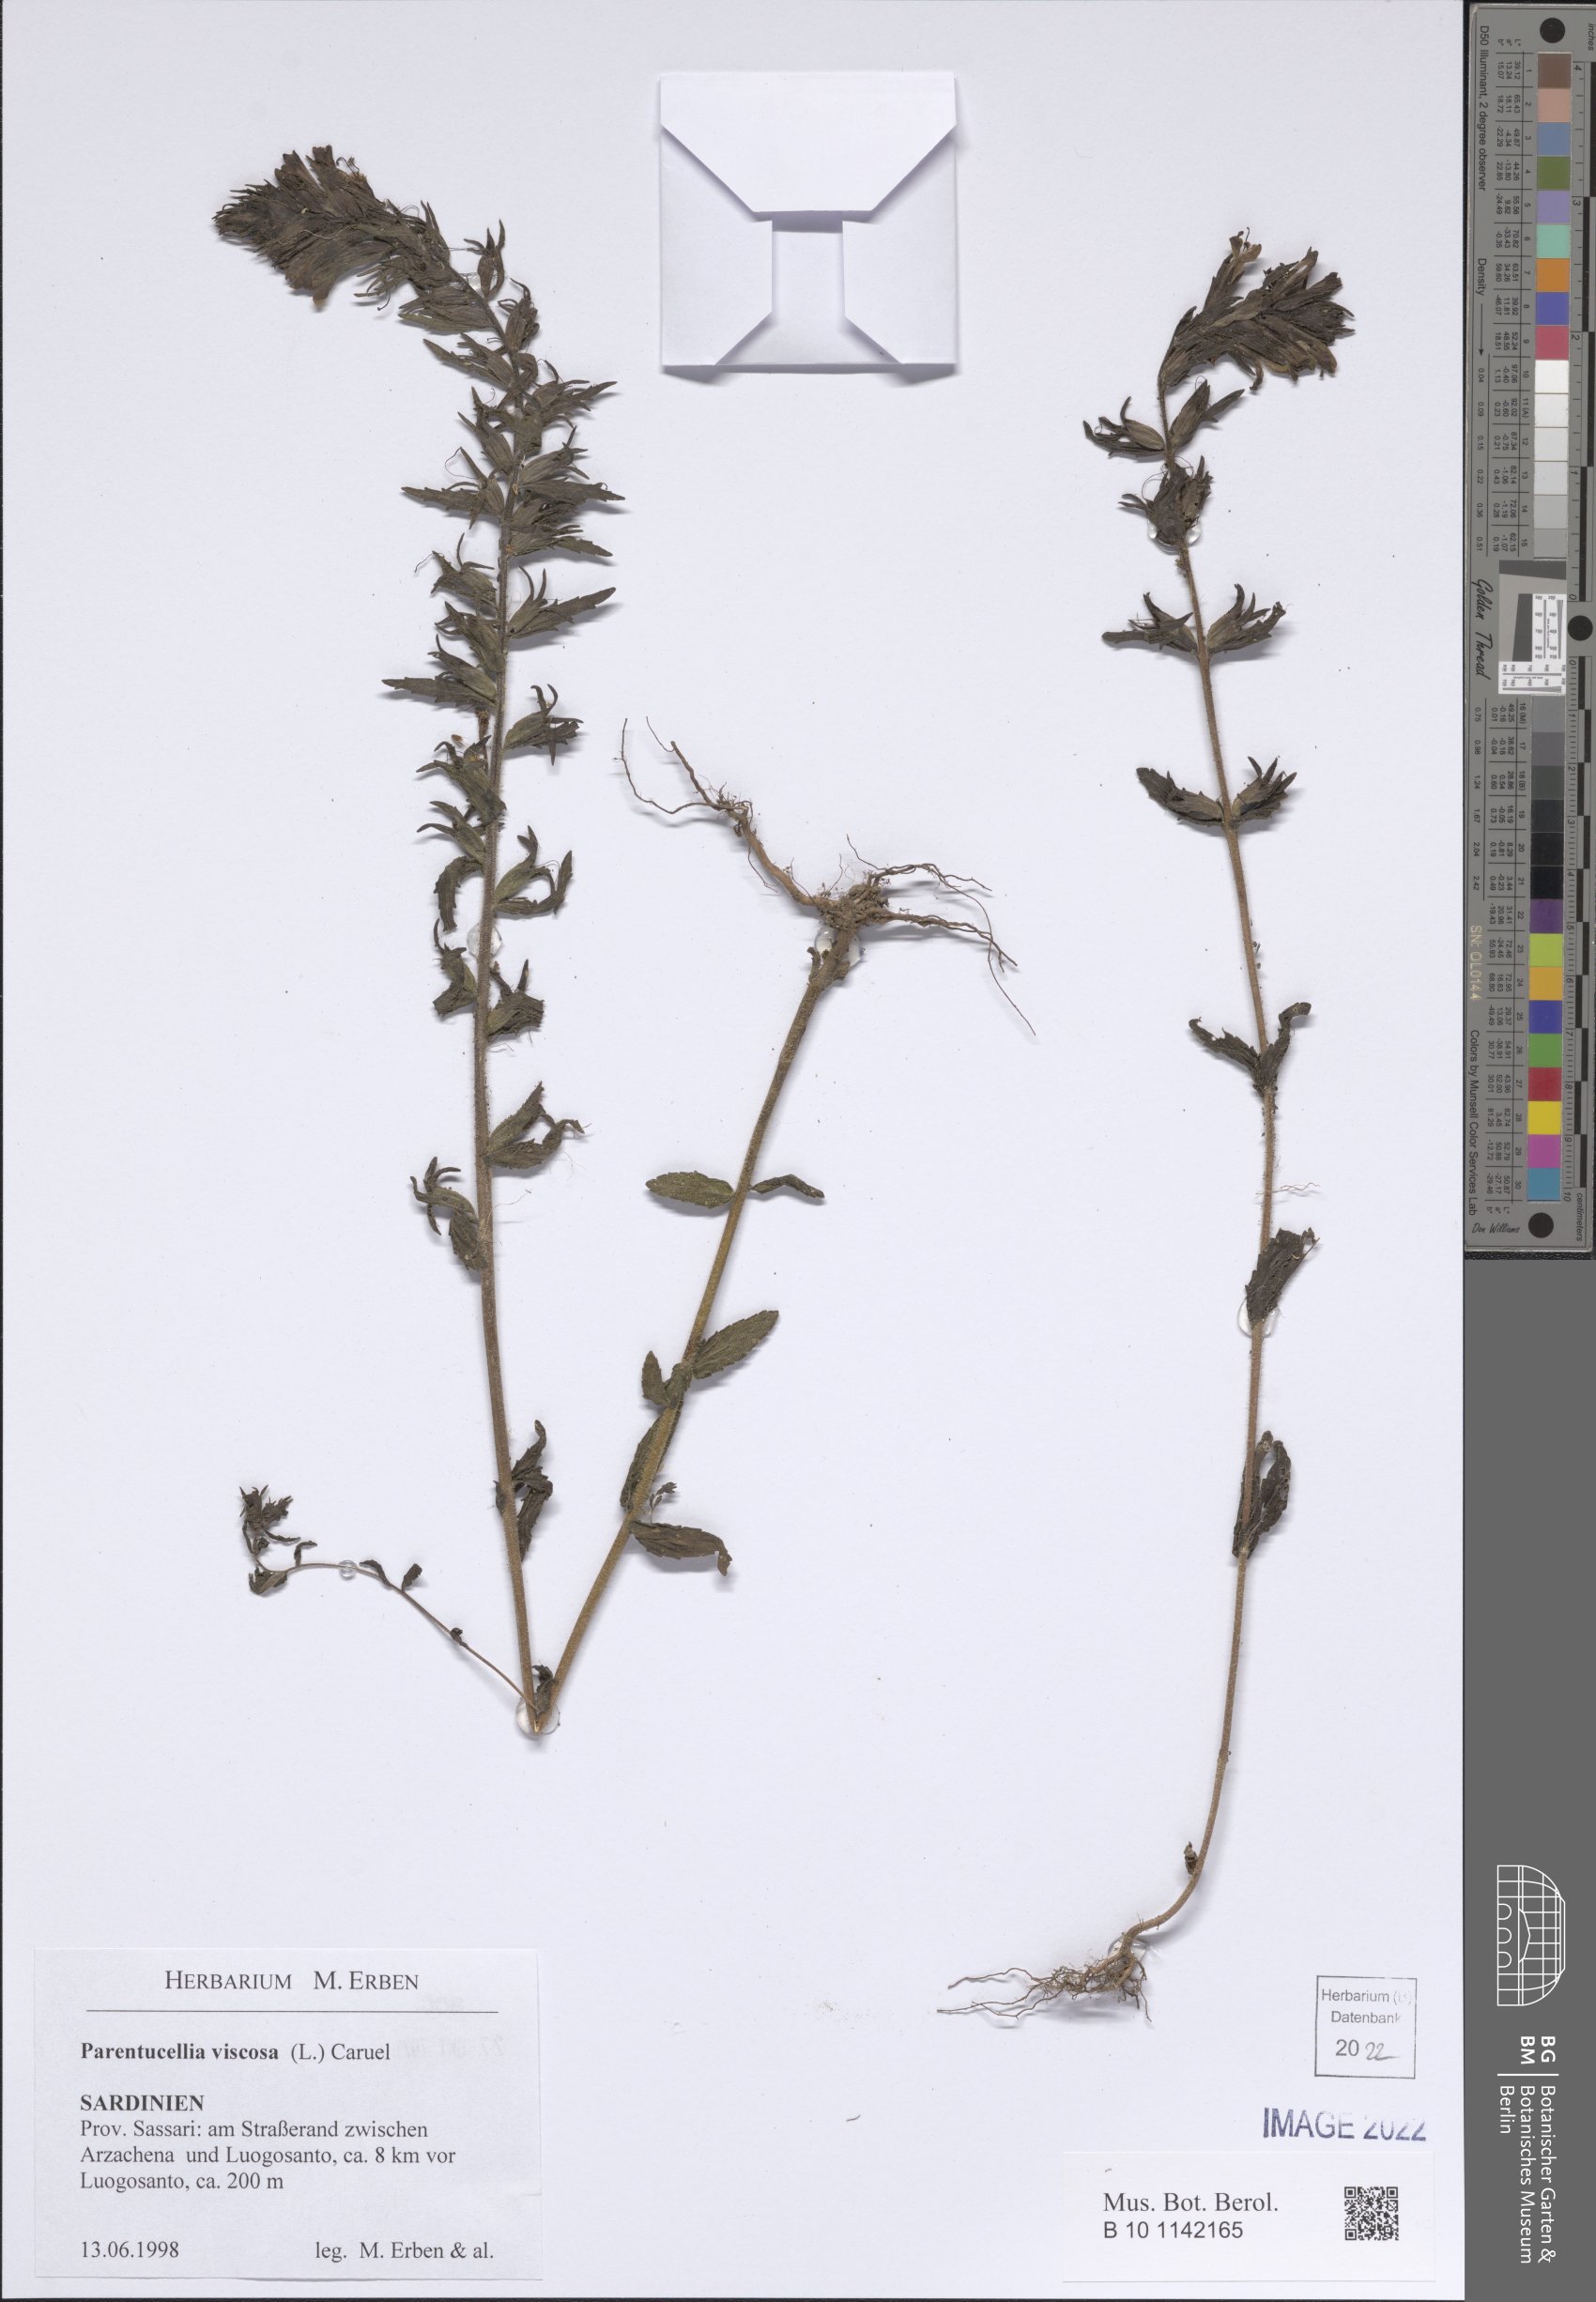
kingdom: Plantae
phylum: Tracheophyta
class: Magnoliopsida
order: Lamiales
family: Orobanchaceae
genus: Bellardia
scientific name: Bellardia viscosa
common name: Sticky parentucellia
